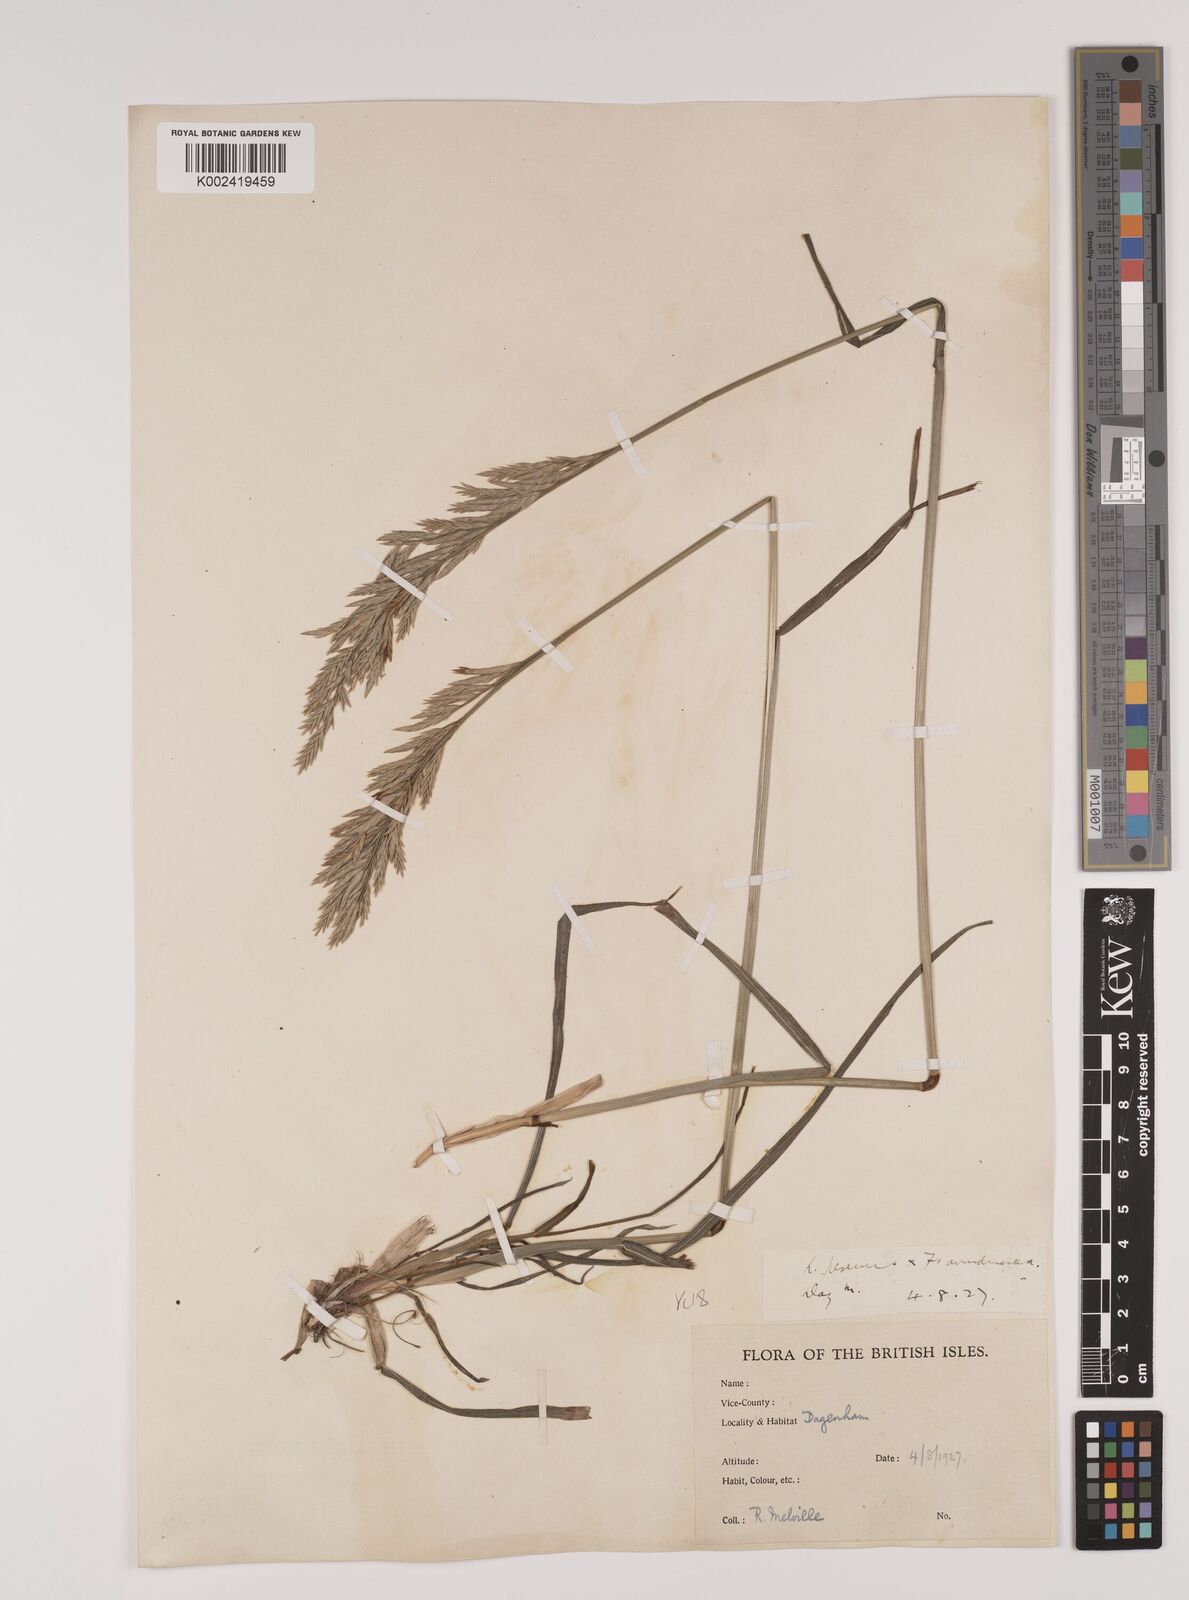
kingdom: Plantae
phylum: Tracheophyta
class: Liliopsida
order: Poales
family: Poaceae
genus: Lolium
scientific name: Lolium pratense
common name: Dover grass
